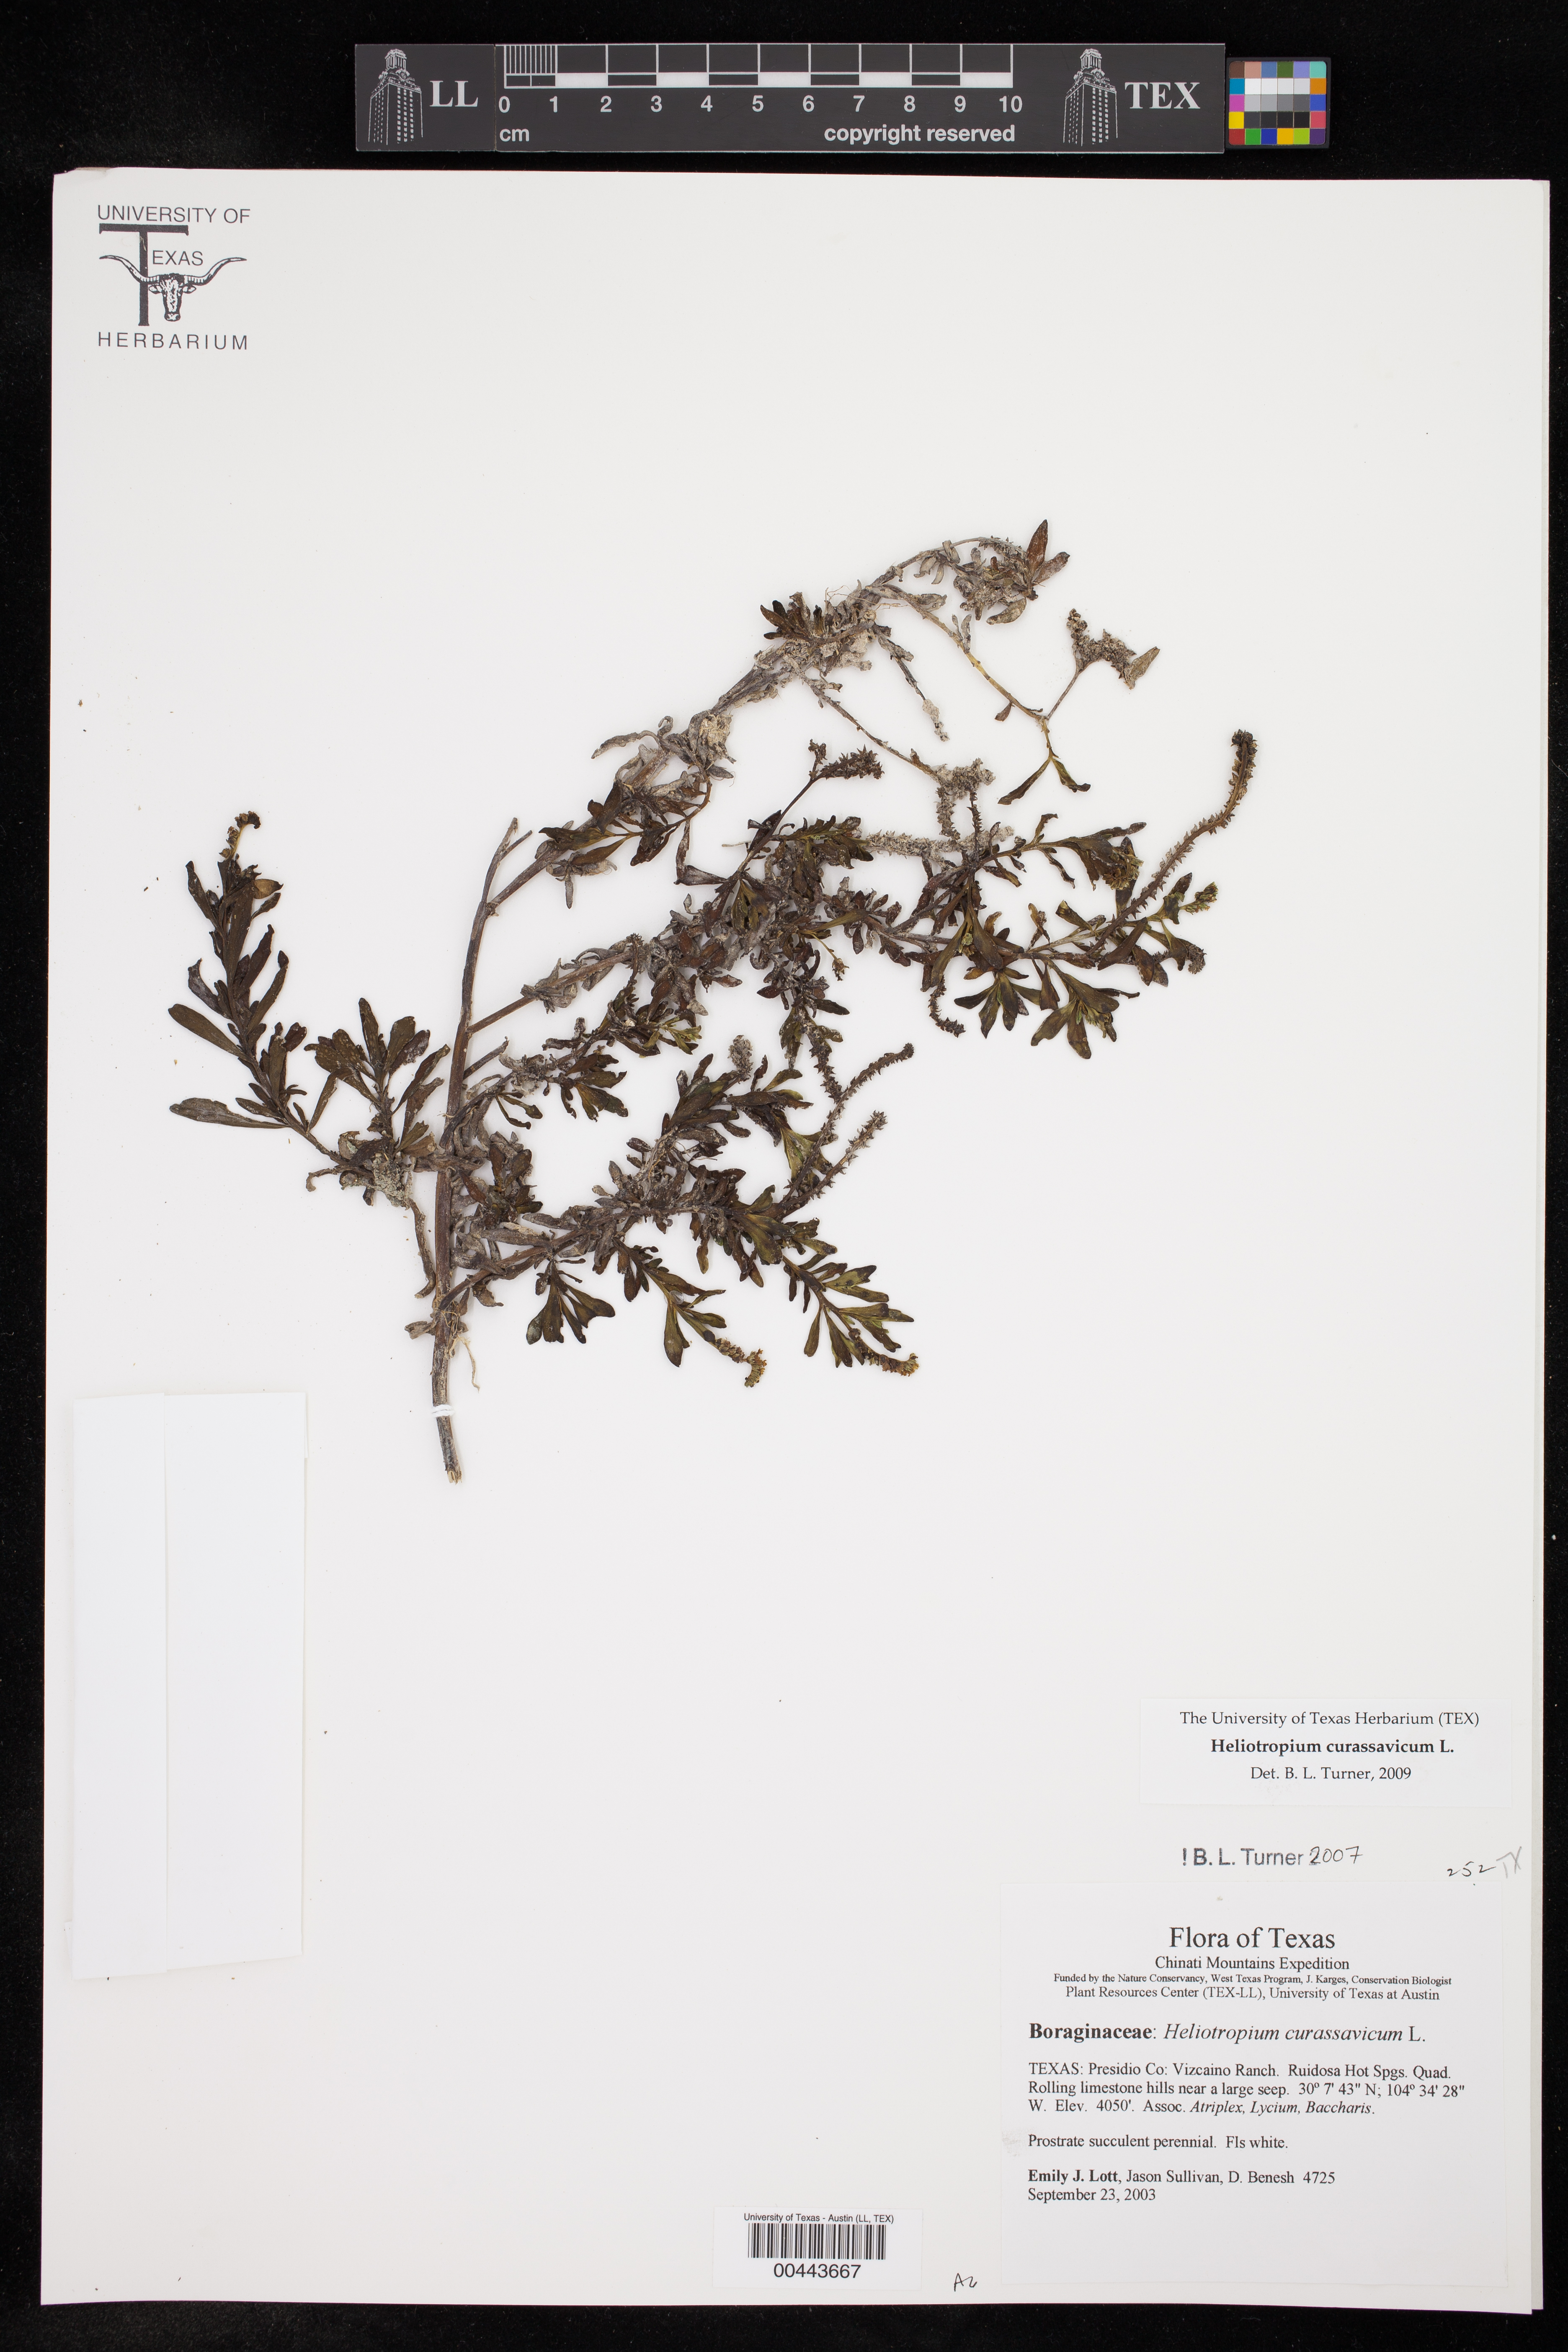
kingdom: Plantae
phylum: Tracheophyta
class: Magnoliopsida
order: Boraginales
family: Heliotropiaceae
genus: Heliotropium
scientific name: Heliotropium curassavicum
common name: Seaside heliotrope
